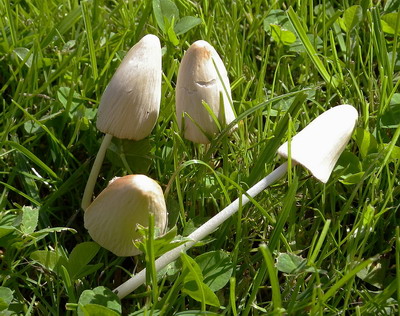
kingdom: Fungi
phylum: Basidiomycota
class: Agaricomycetes
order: Agaricales
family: Bolbitiaceae
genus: Conocybe
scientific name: Conocybe apala
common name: mælkehvid keglehat
